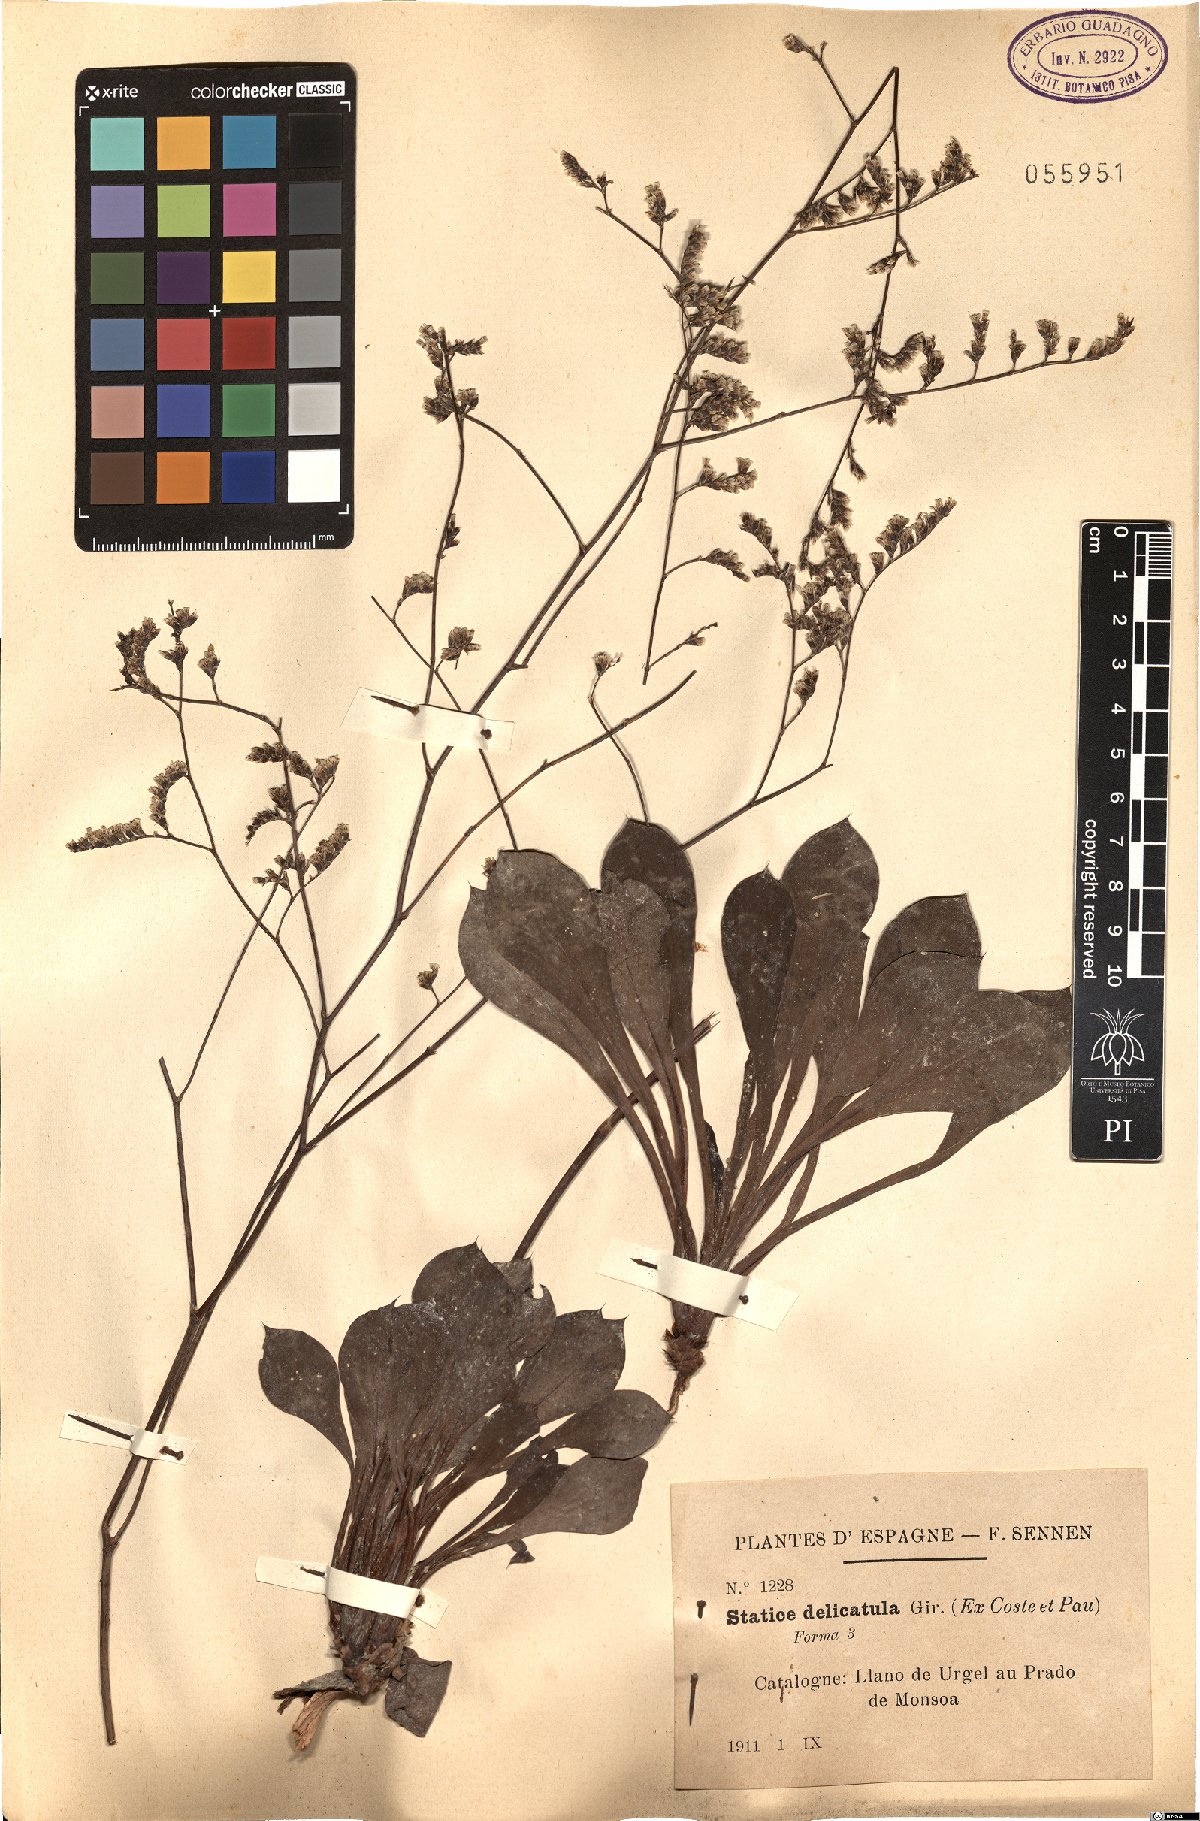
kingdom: Plantae
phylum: Tracheophyta
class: Magnoliopsida
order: Caryophyllales
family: Plumbaginaceae
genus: Limonium
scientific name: Limonium delicatulum
